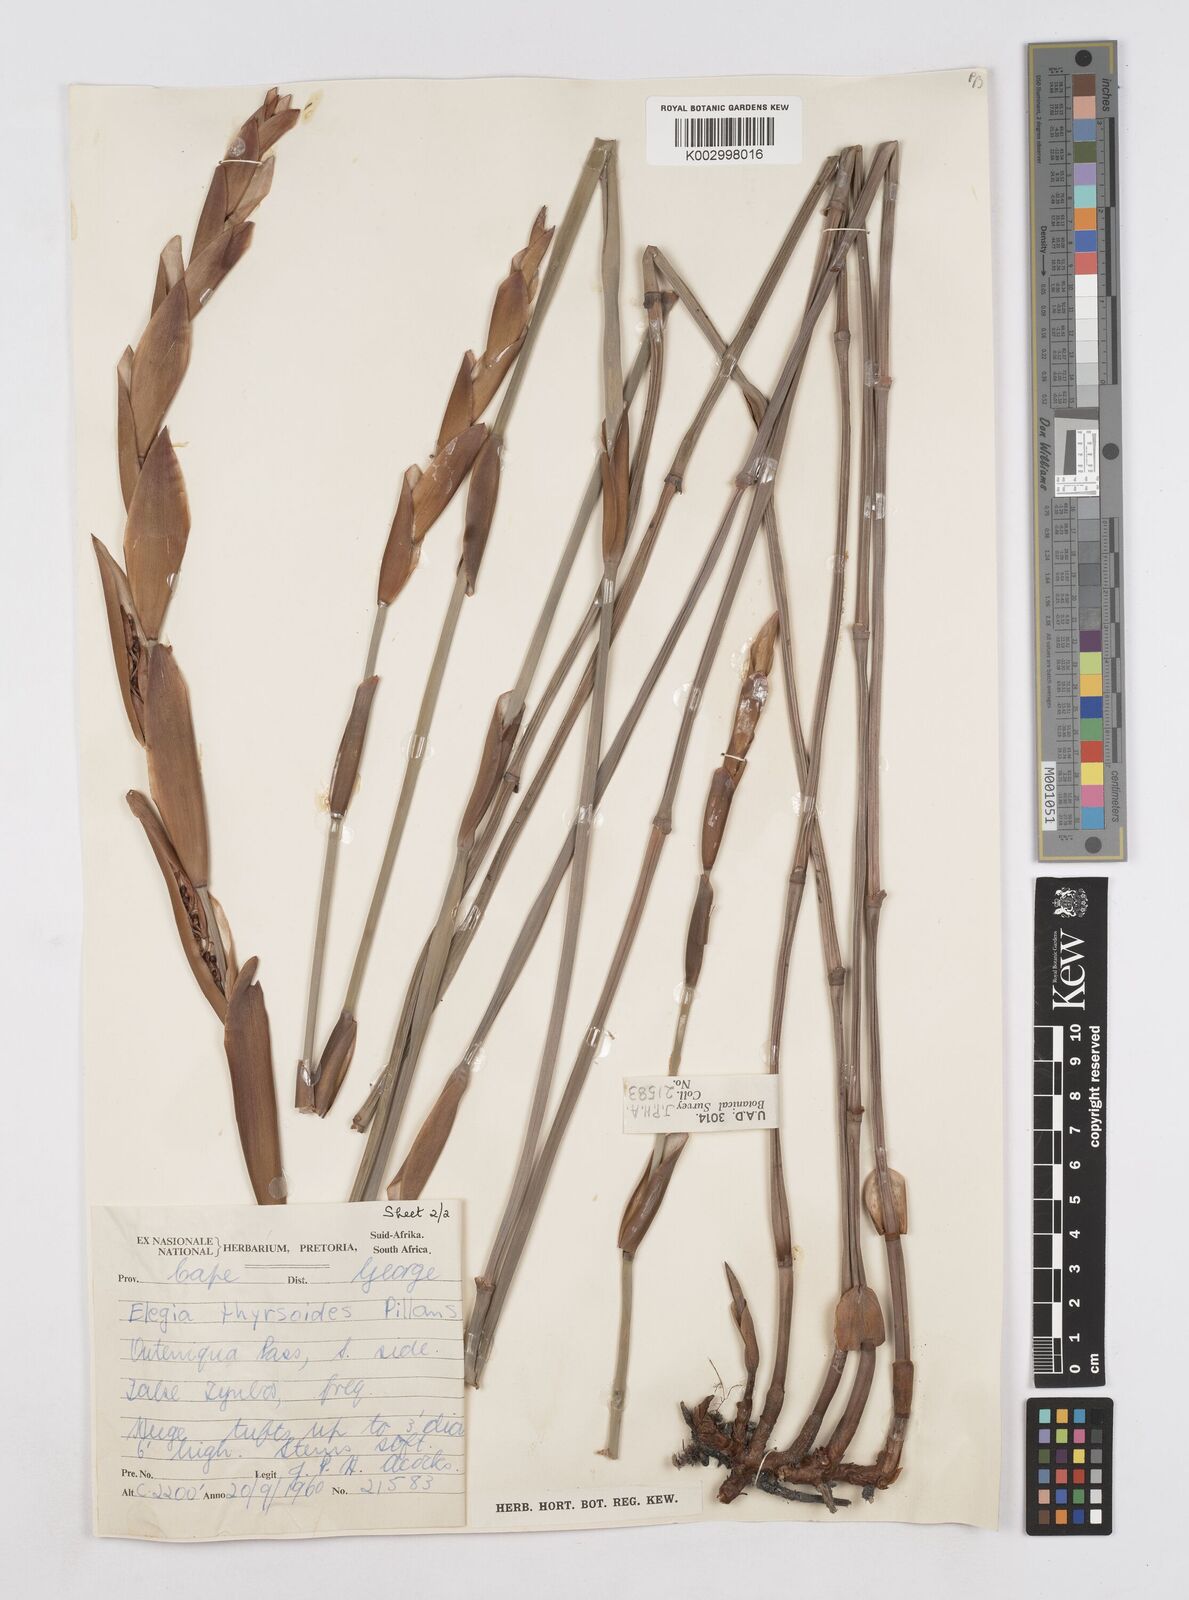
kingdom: Plantae
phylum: Tracheophyta
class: Liliopsida
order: Poales
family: Restionaceae
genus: Elegia
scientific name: Elegia thyrsoidea
